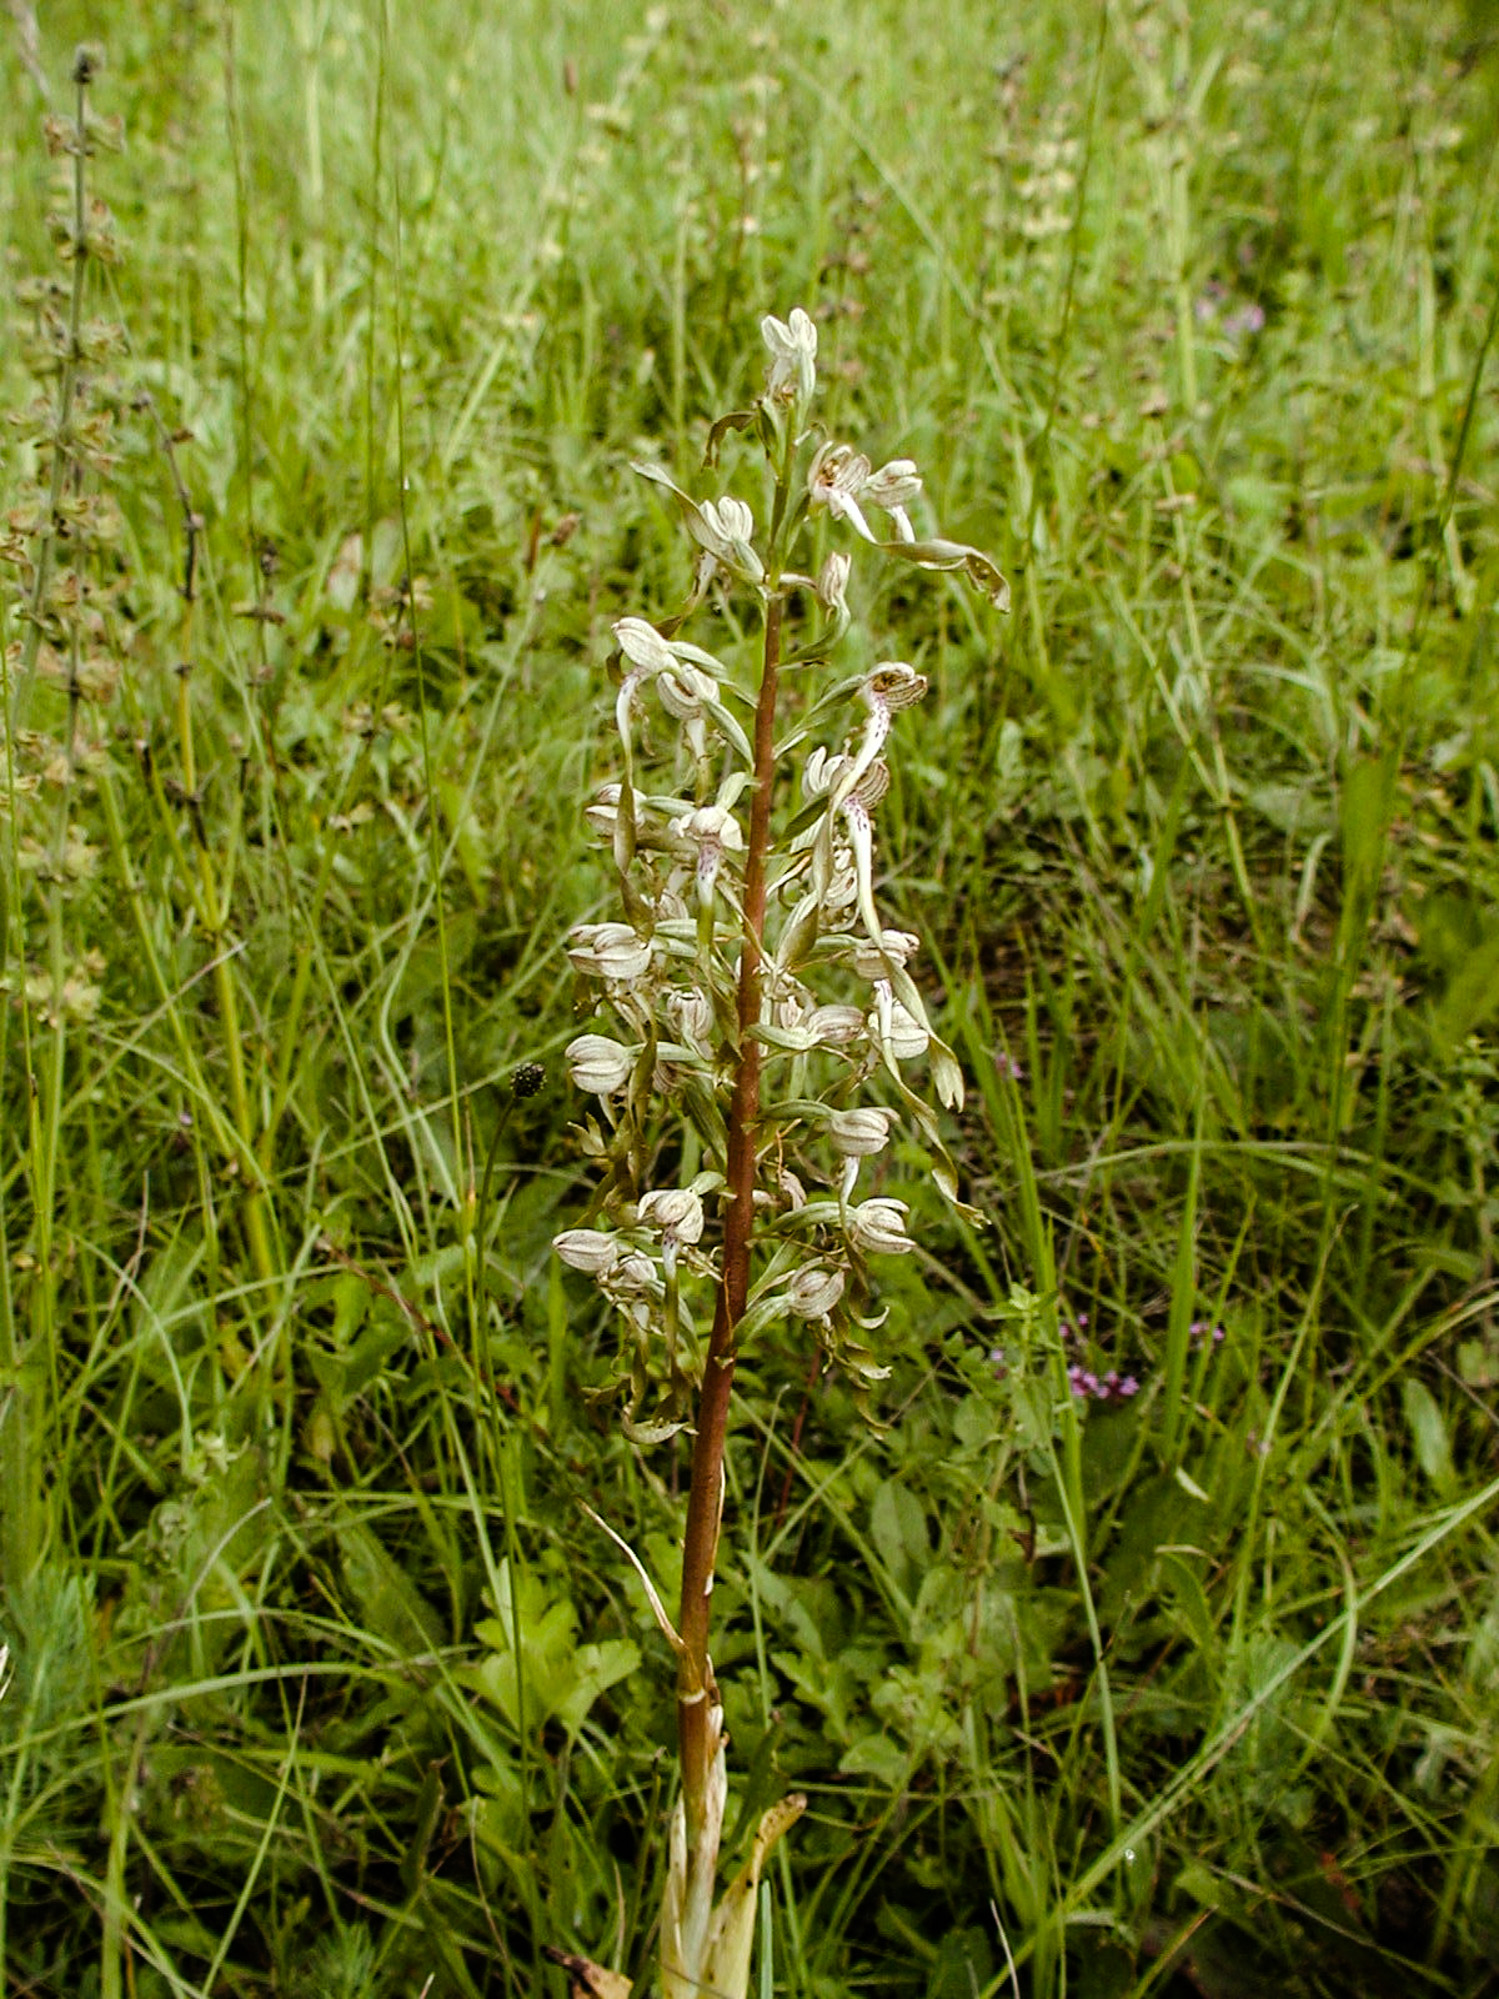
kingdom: Plantae
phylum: Tracheophyta
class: Liliopsida
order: Asparagales
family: Orchidaceae
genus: Himantoglossum
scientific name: Himantoglossum hircinum
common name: Lizard orchid
